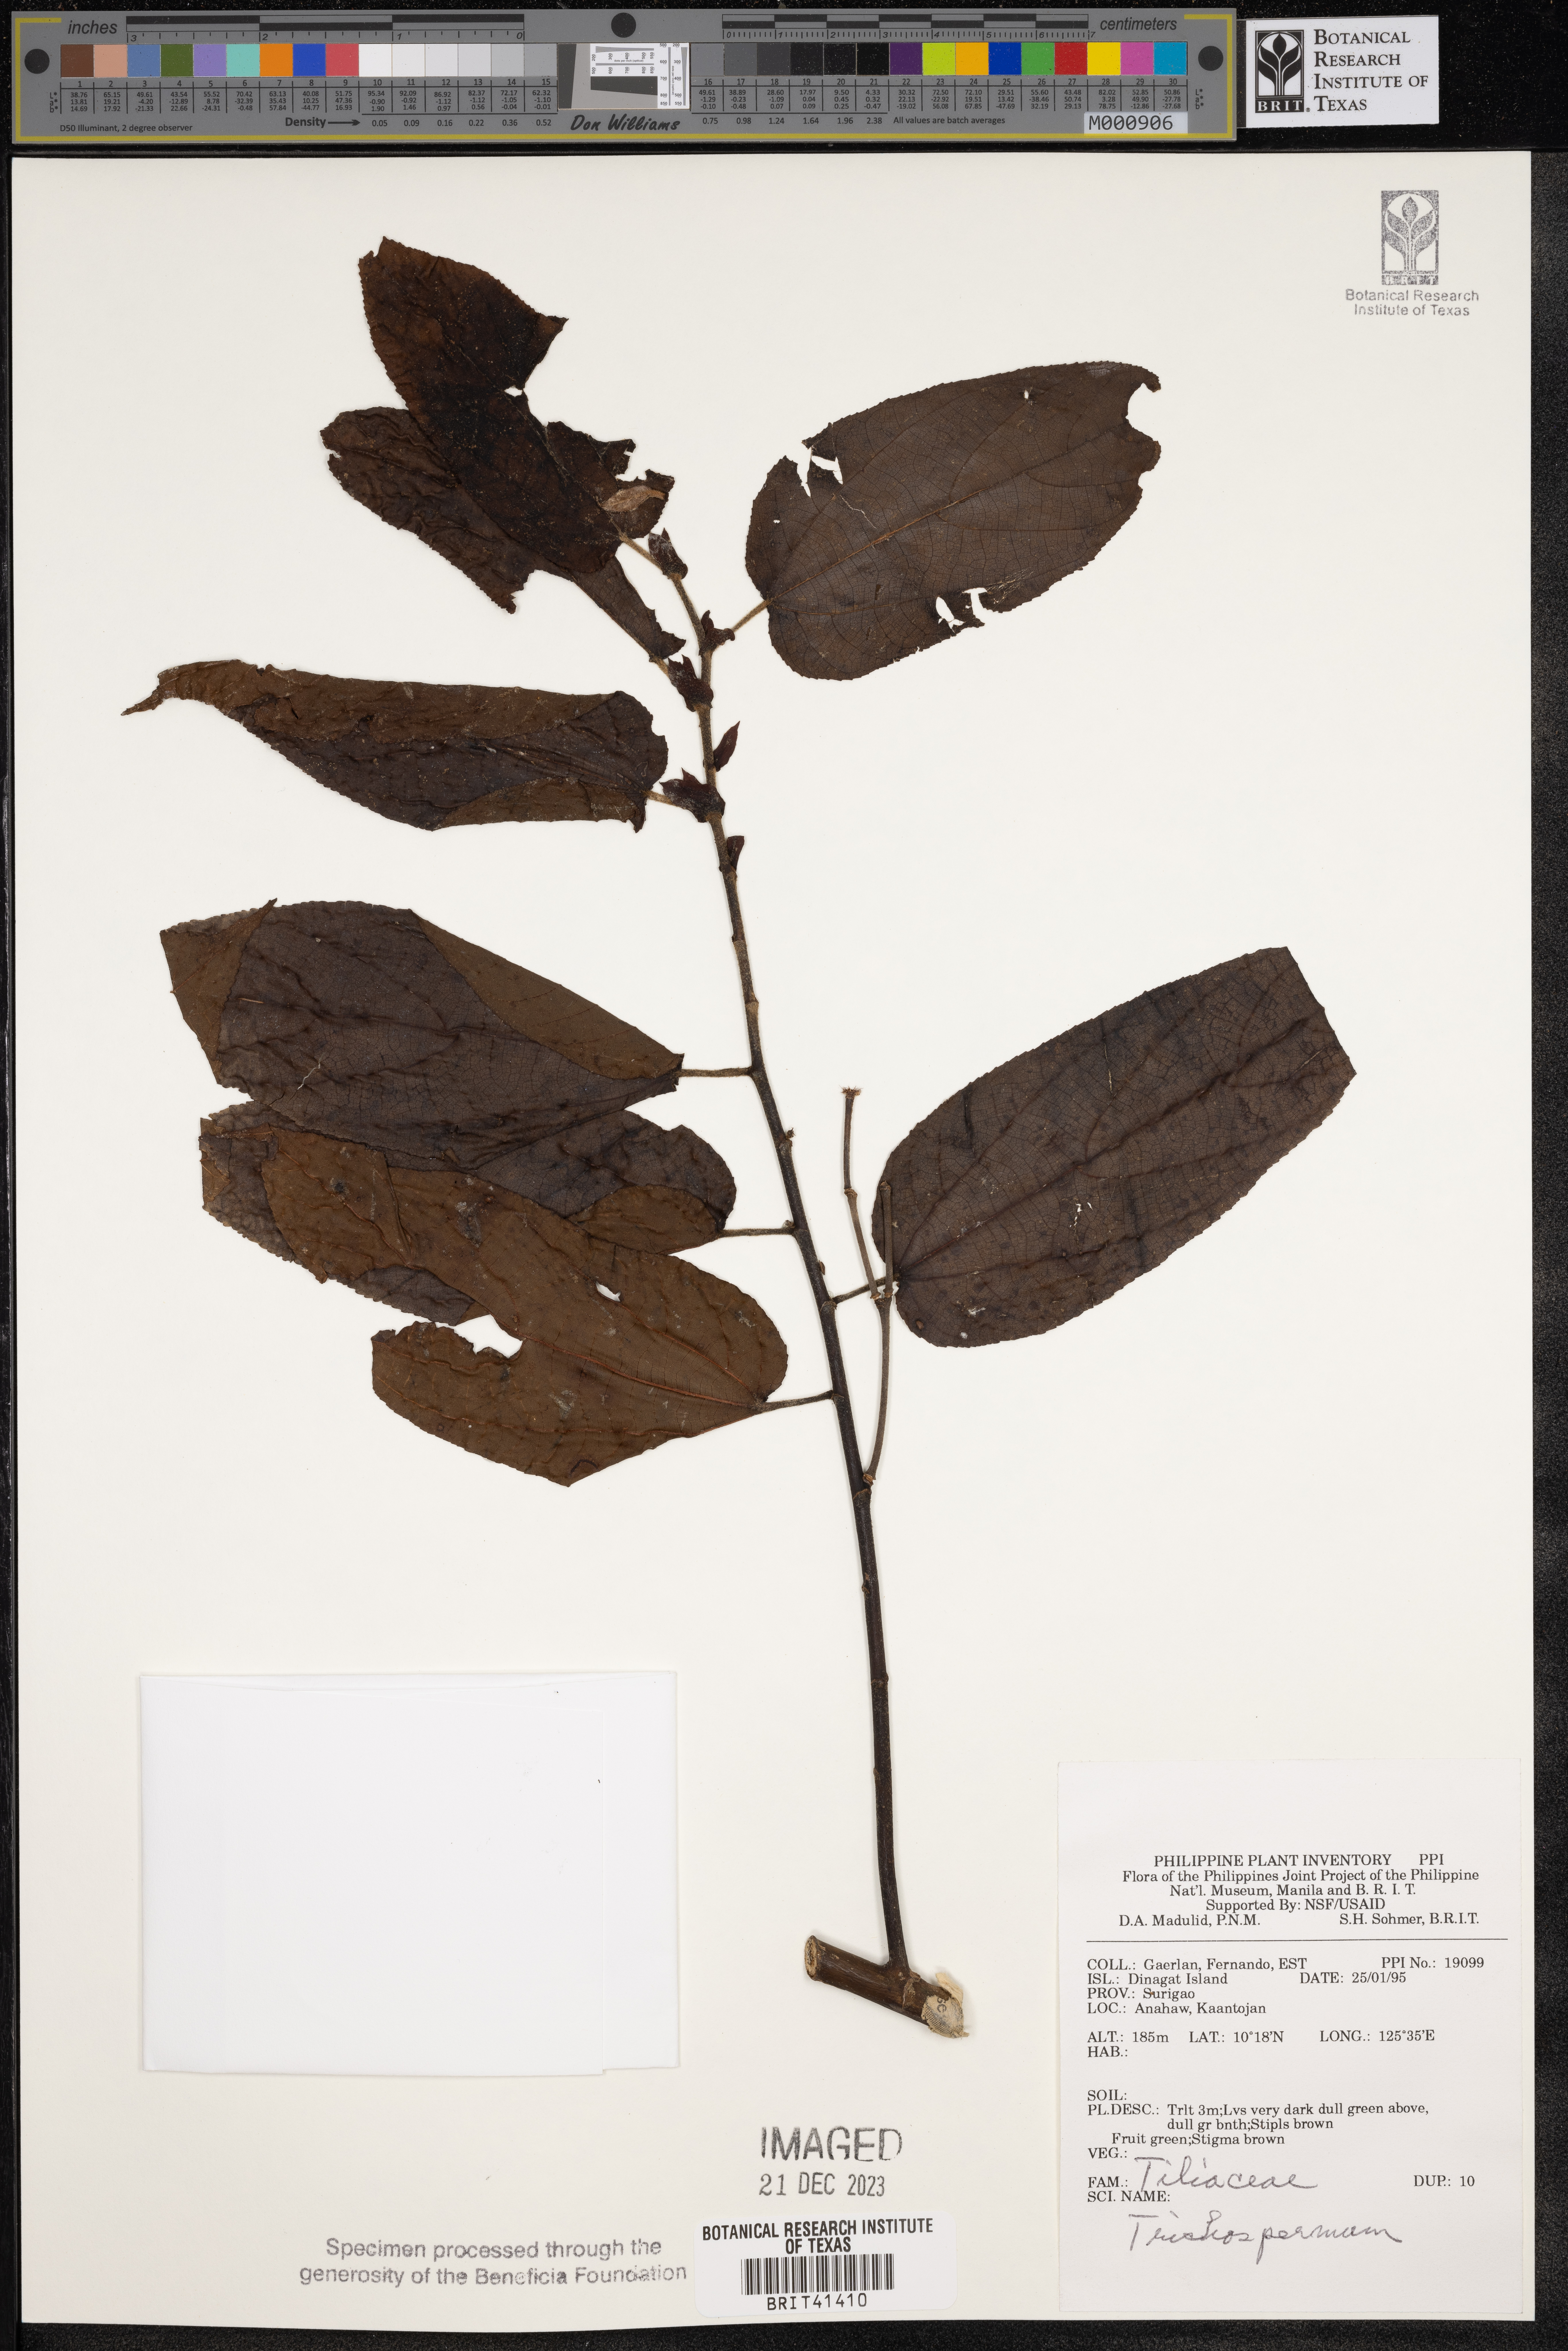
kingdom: Plantae
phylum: Tracheophyta
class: Magnoliopsida
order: Malvales
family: Malvaceae
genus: Trichospermum
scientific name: Trichospermum
